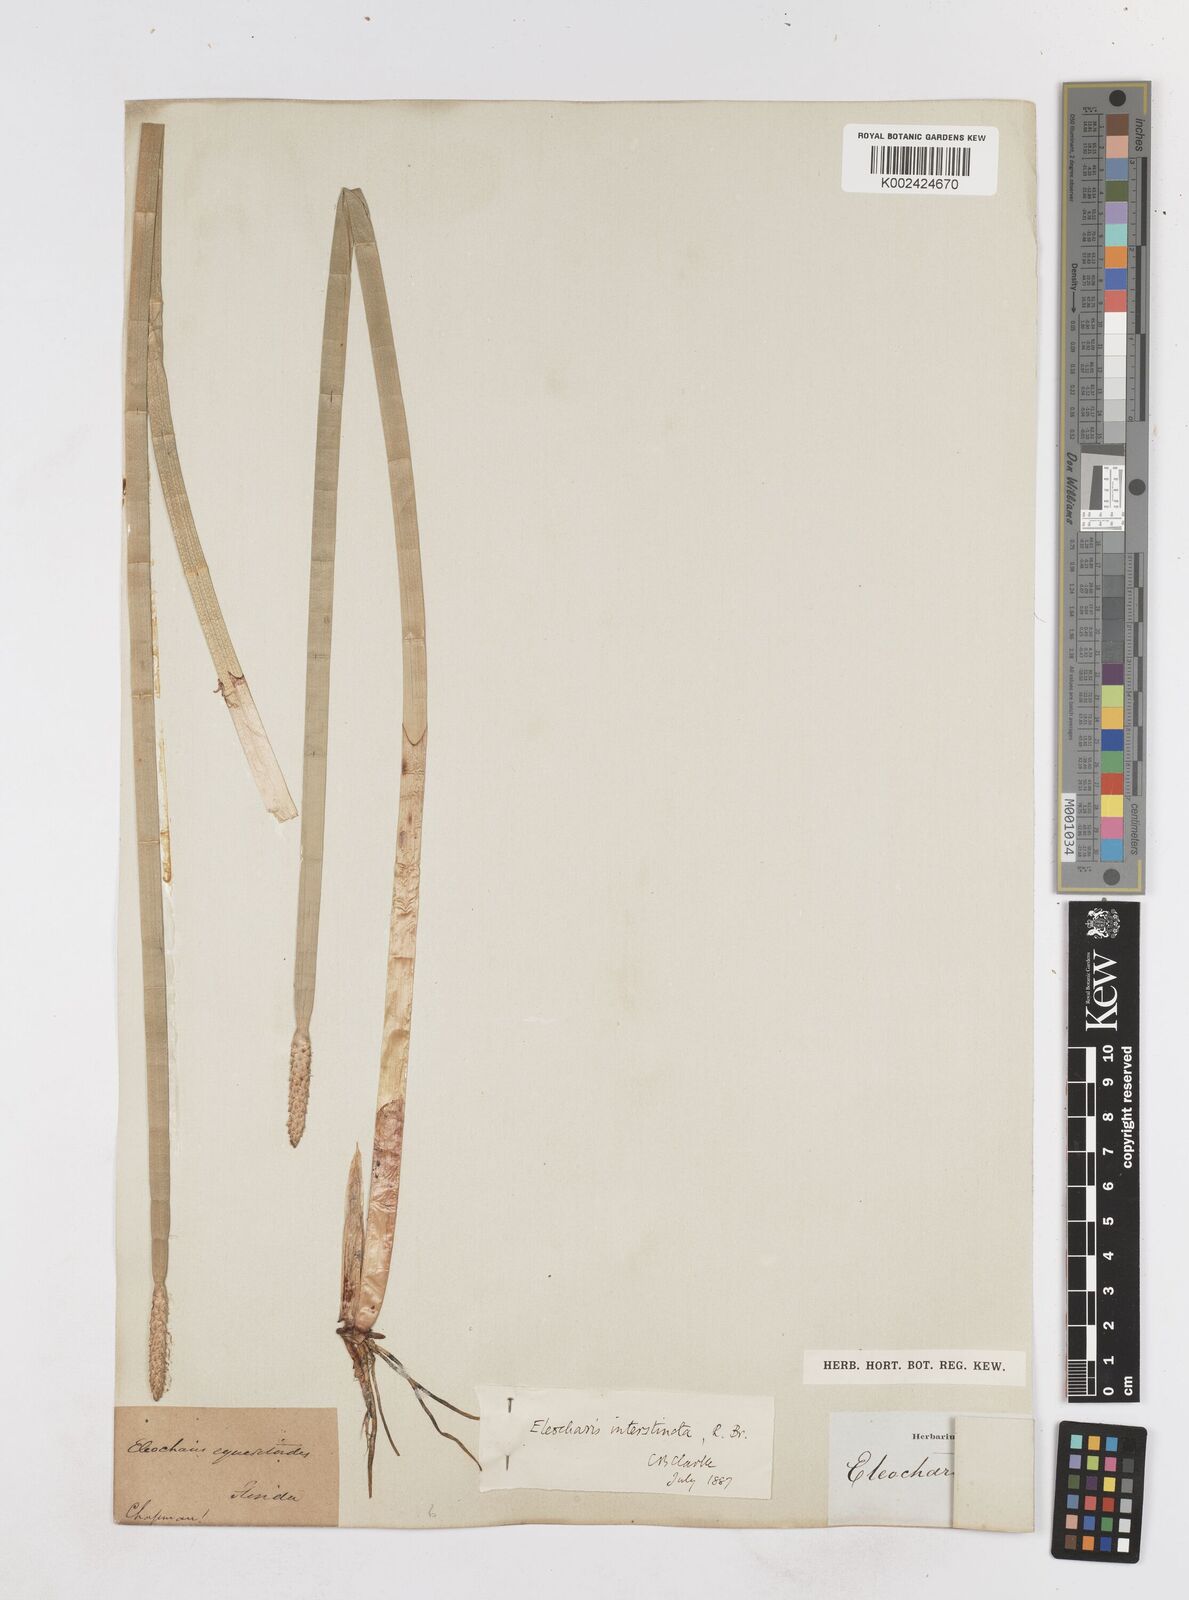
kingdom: Plantae
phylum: Tracheophyta
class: Liliopsida
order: Poales
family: Cyperaceae
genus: Eleocharis
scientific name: Eleocharis interstincta
